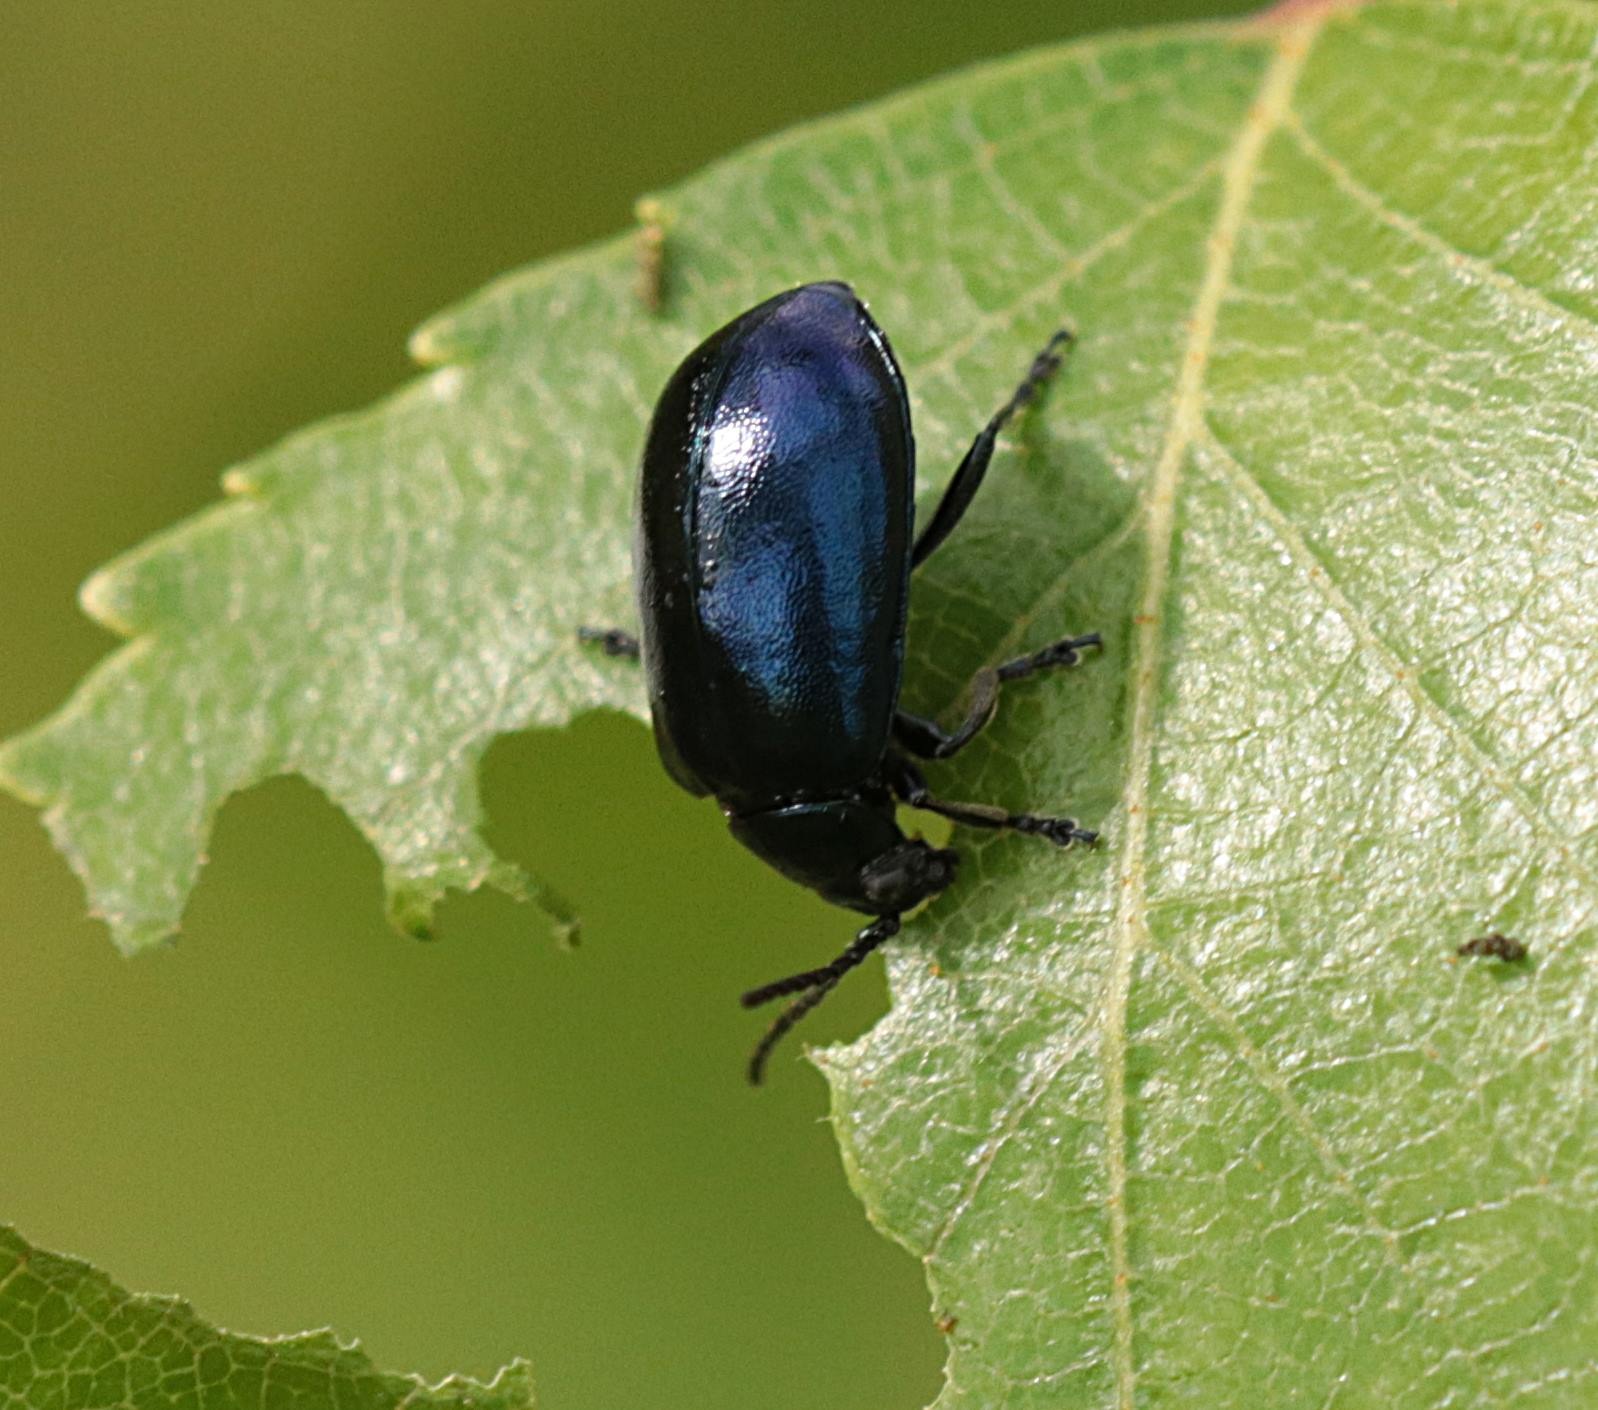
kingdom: Animalia
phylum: Arthropoda
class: Insecta
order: Coleoptera
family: Chrysomelidae
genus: Agelastica
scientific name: Agelastica alni
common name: Ellebladbille
